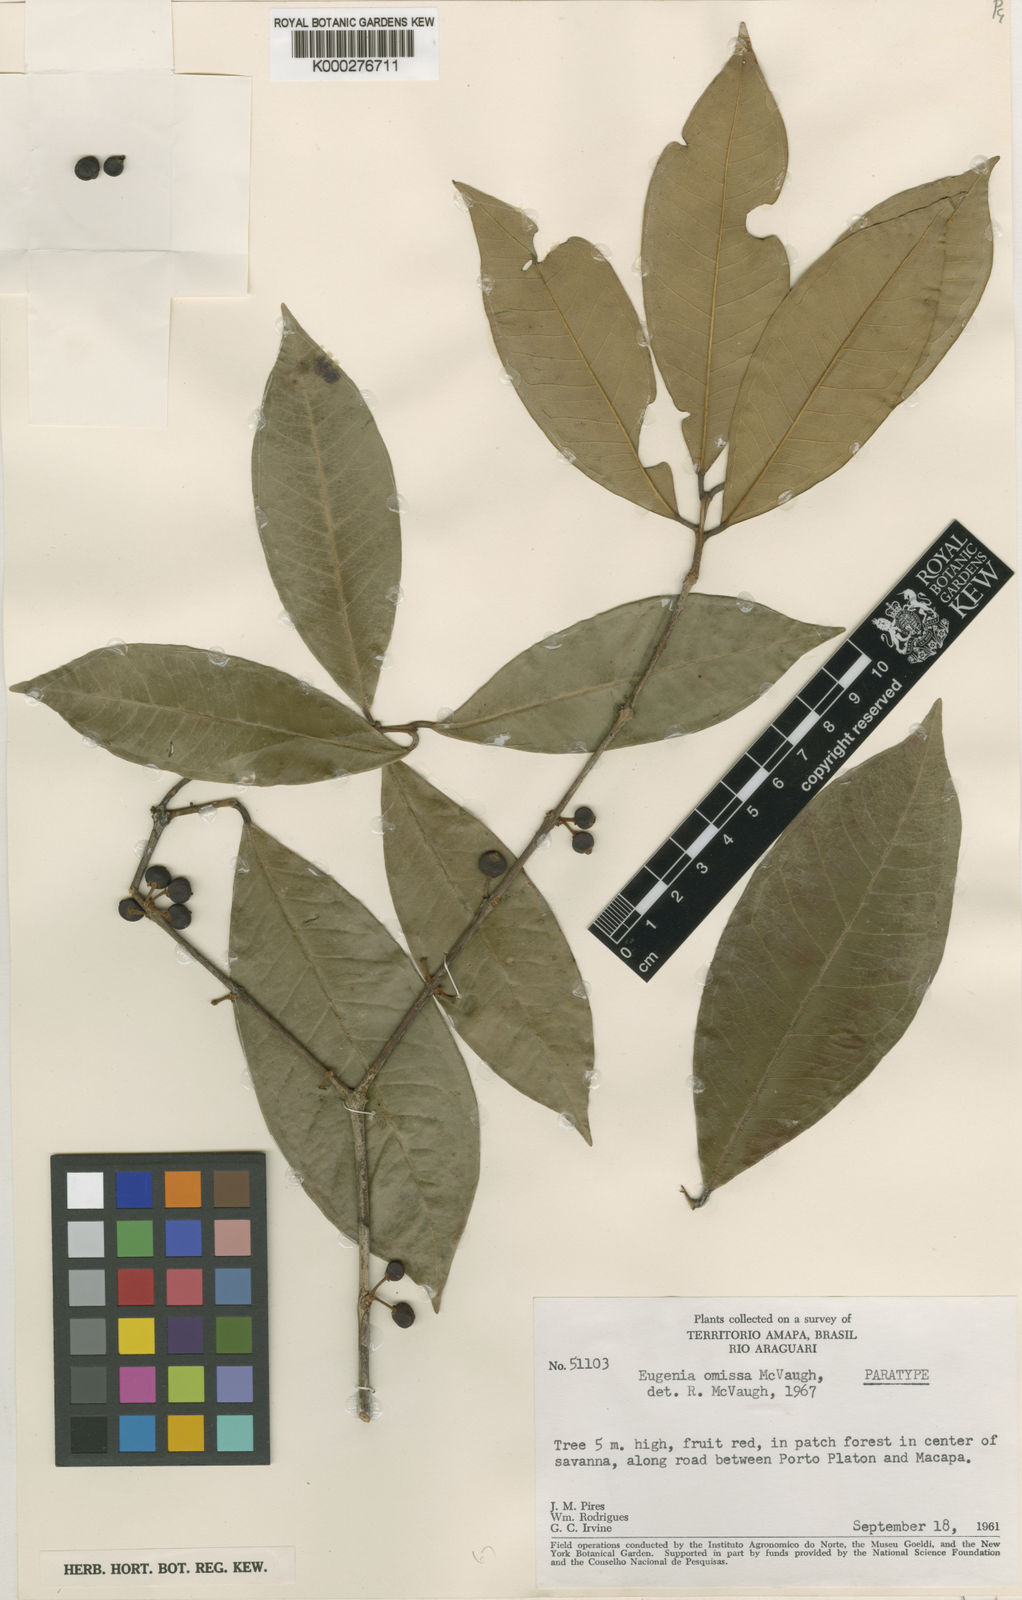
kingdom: Plantae
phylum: Tracheophyta
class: Magnoliopsida
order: Myrtales
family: Myrtaceae
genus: Eugenia
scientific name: Eugenia omissa
